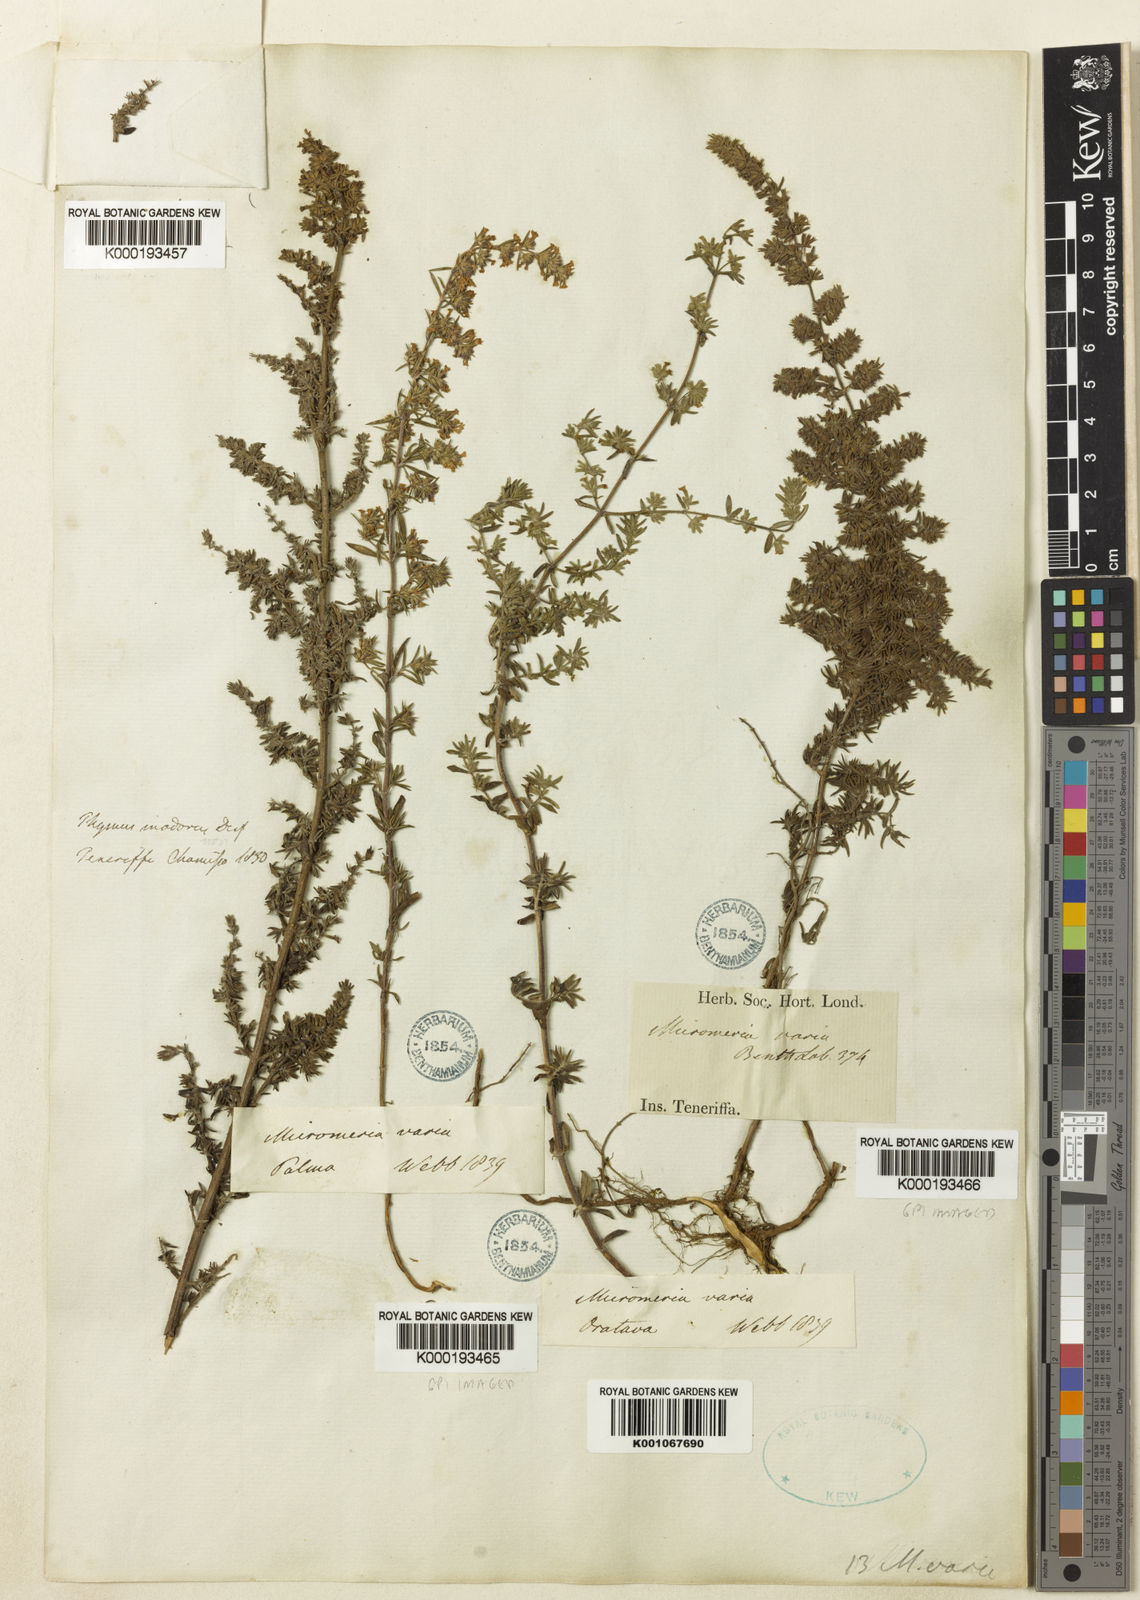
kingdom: Plantae
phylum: Tracheophyta
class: Magnoliopsida
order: Lamiales
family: Lamiaceae
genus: Micromeria
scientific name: Micromeria ericifolia
